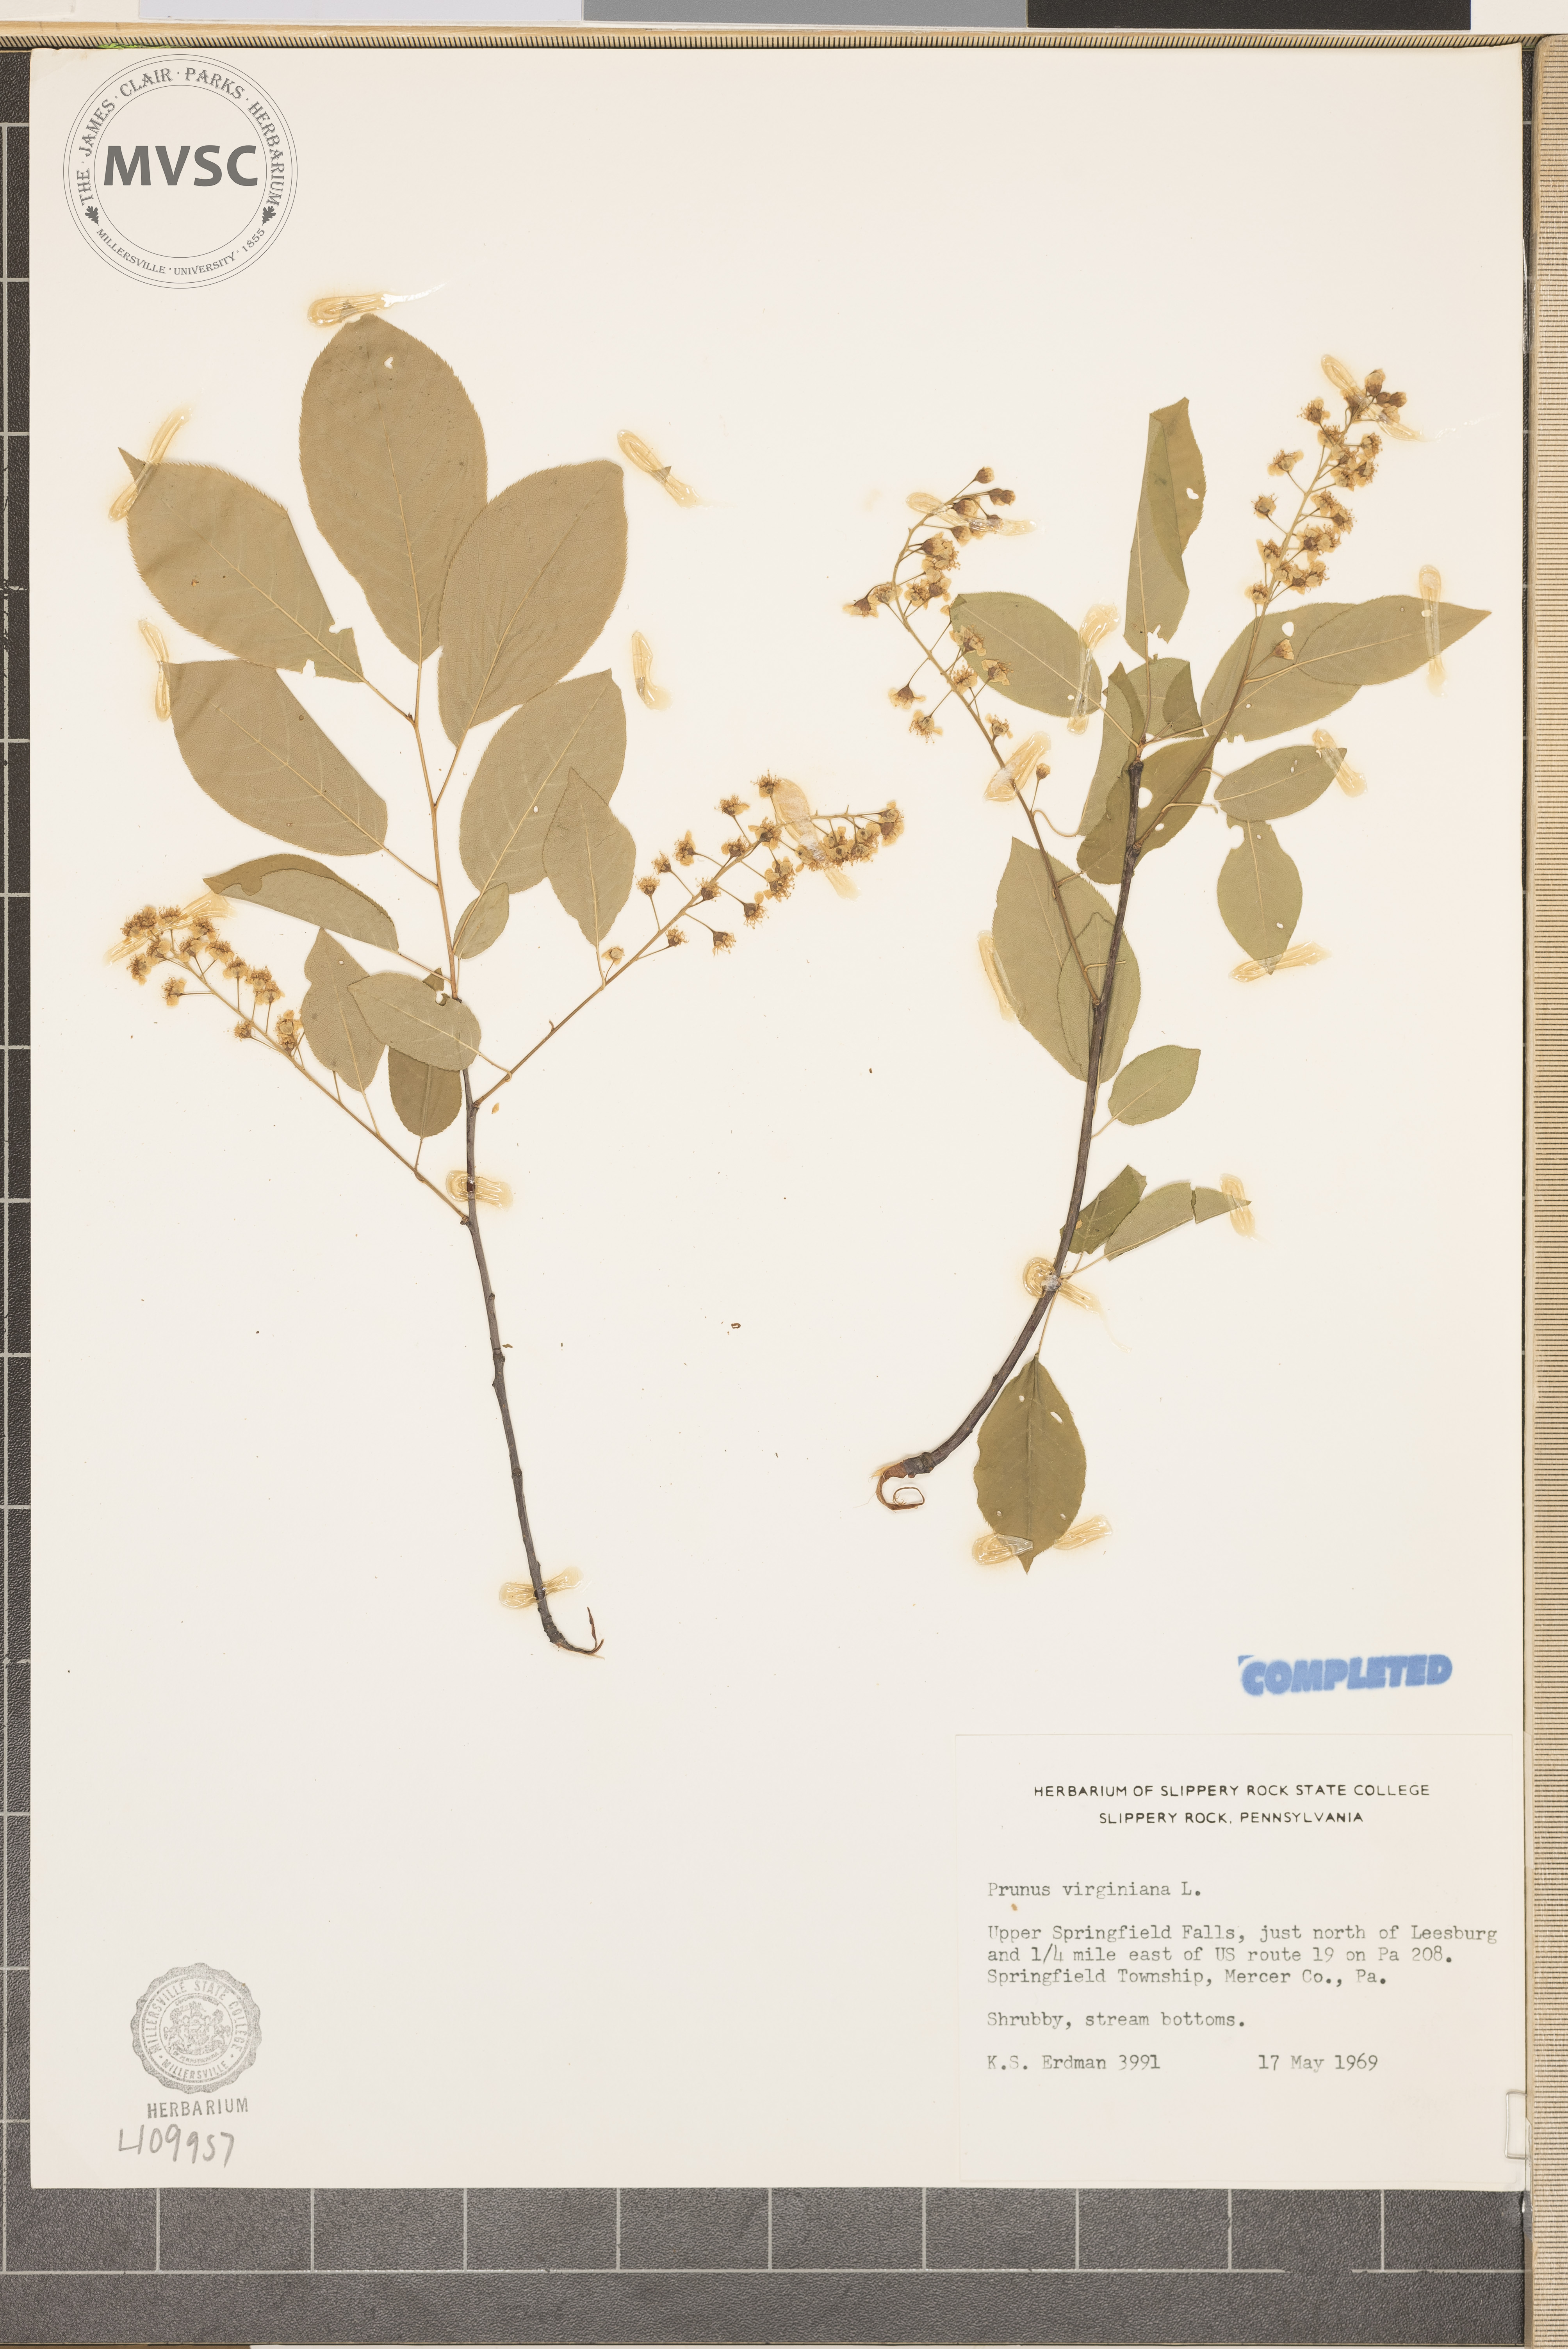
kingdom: Plantae
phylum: Tracheophyta
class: Magnoliopsida
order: Rosales
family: Rosaceae
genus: Prunus
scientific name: Prunus virginiana
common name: Chokecherry
